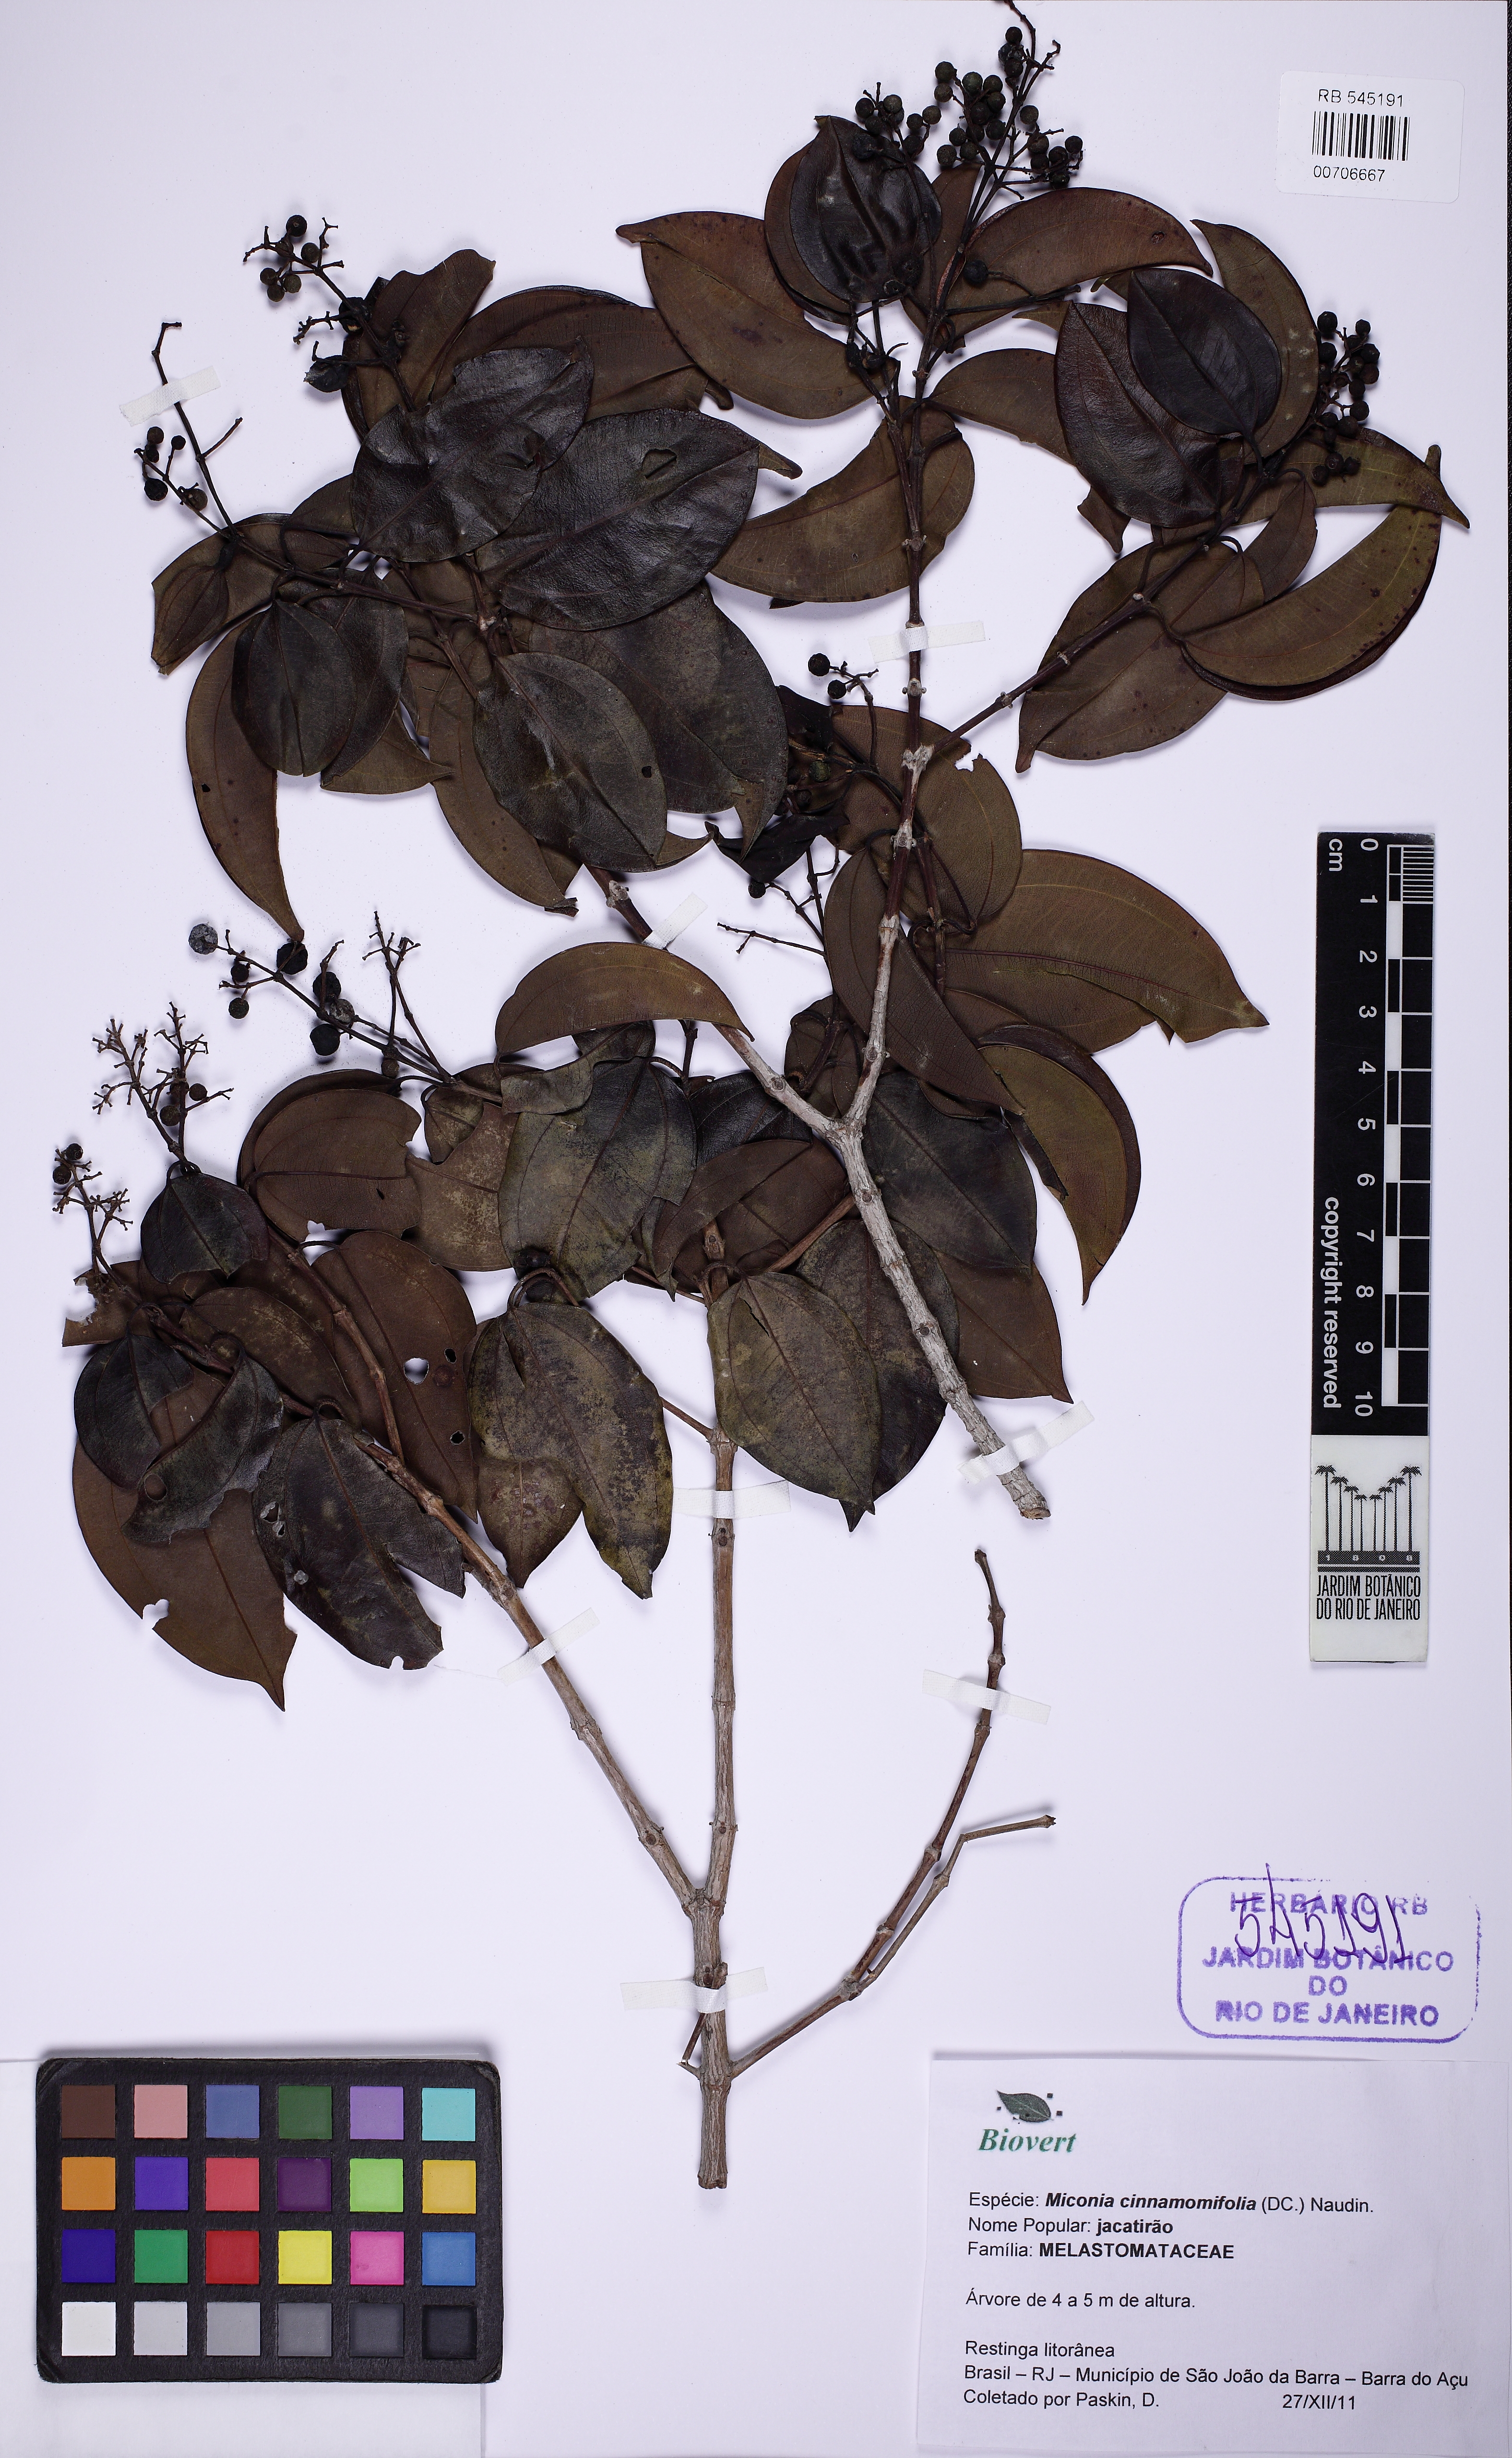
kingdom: Plantae
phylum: Tracheophyta
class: Magnoliopsida
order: Myrtales
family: Melastomataceae
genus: Miconia
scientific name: Miconia cinnamomifolia
